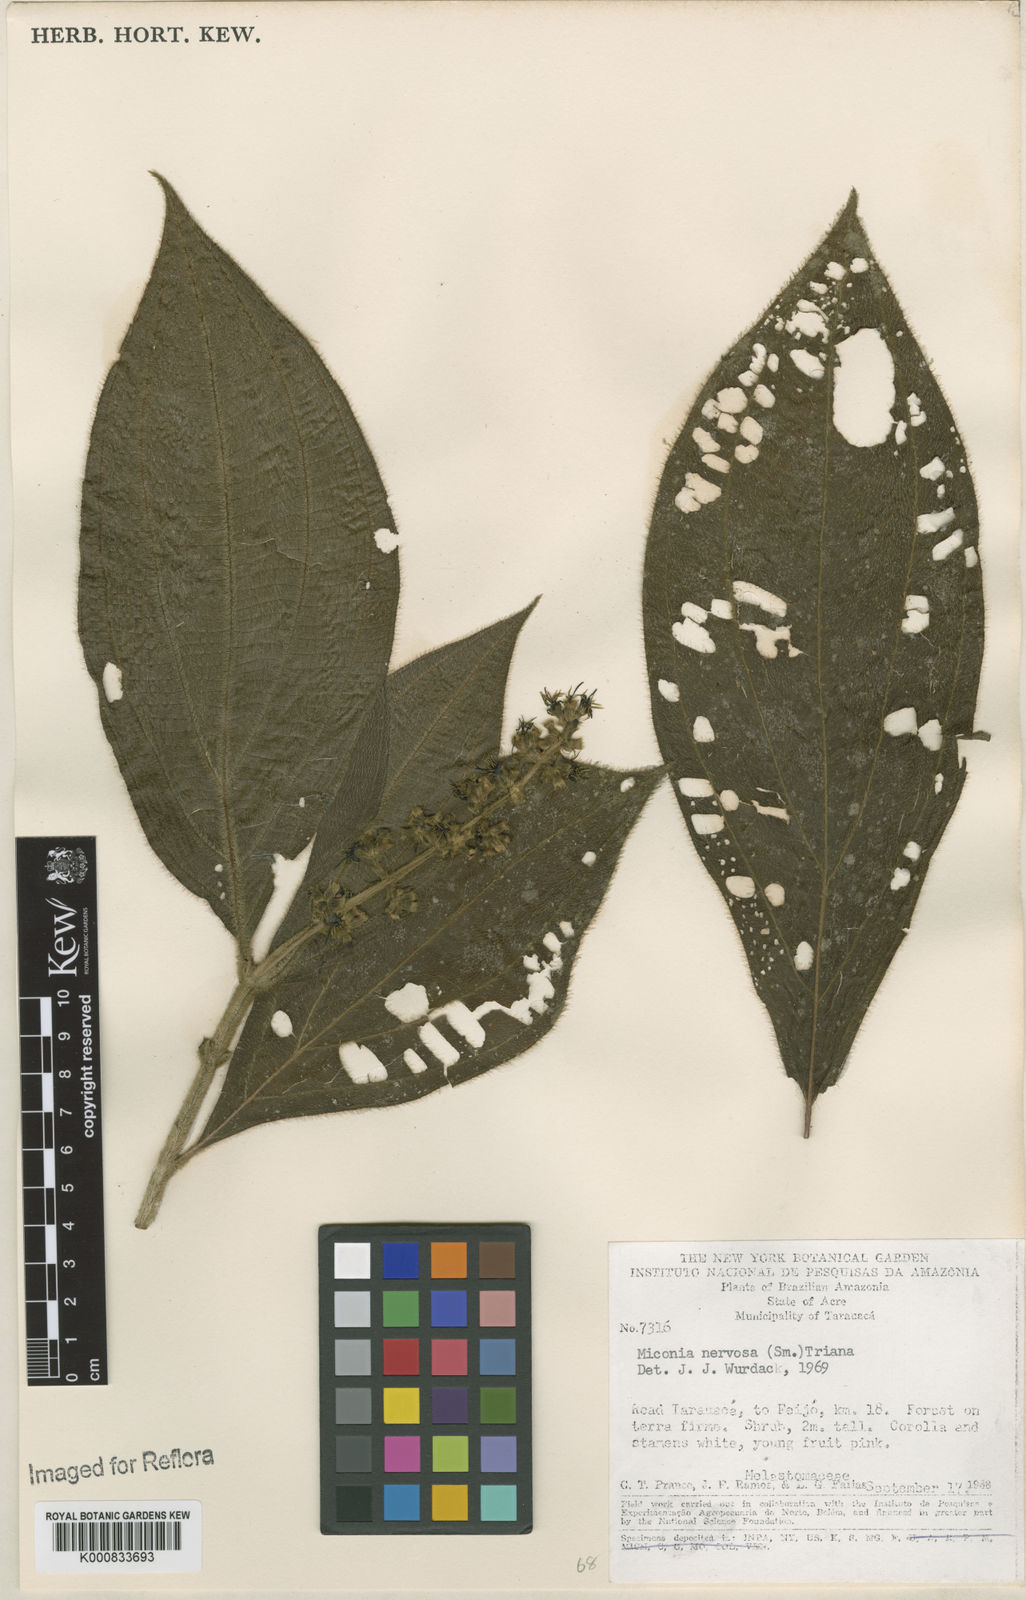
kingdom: Plantae
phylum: Tracheophyta
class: Magnoliopsida
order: Myrtales
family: Melastomataceae
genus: Miconia
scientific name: Miconia nervosa
